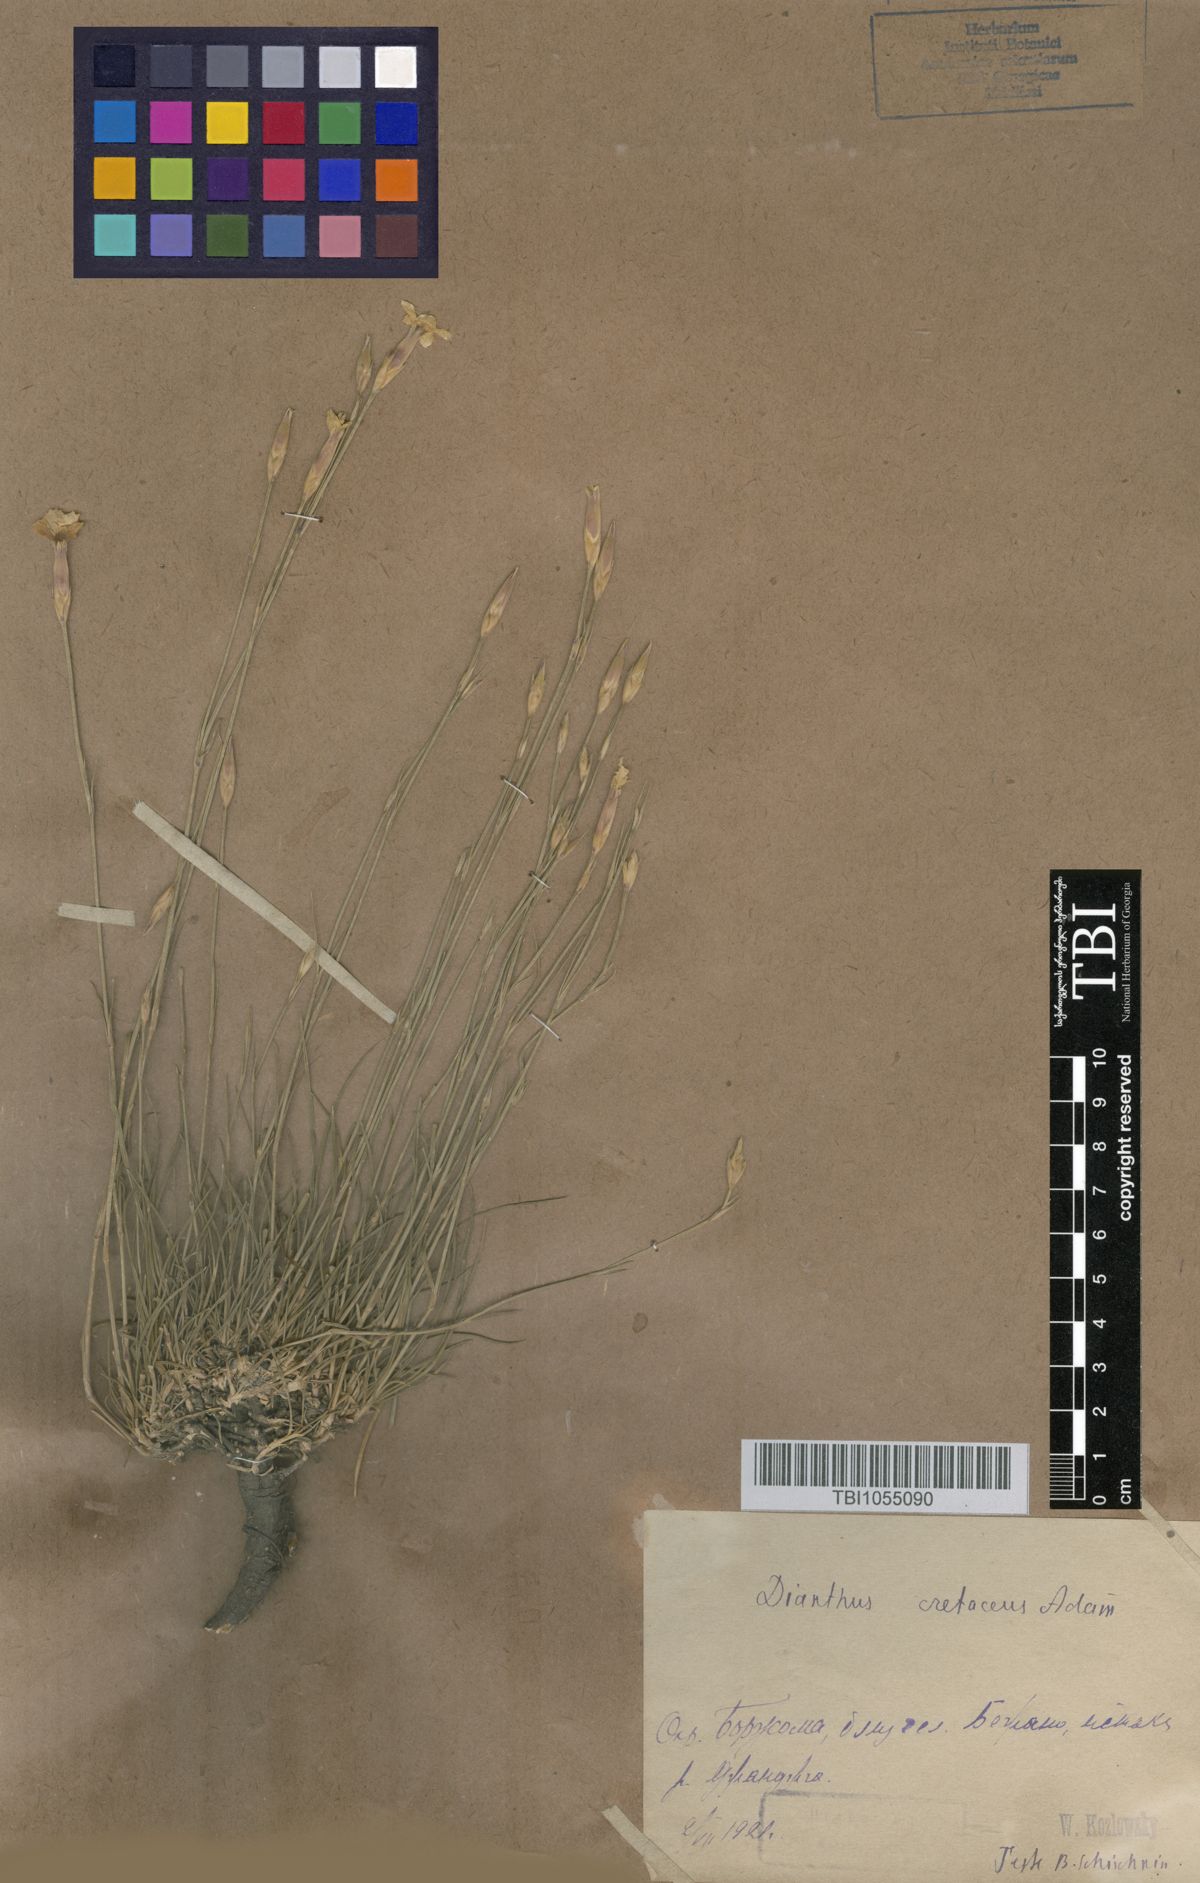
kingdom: Plantae
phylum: Tracheophyta
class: Magnoliopsida
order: Caryophyllales
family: Caryophyllaceae
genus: Dianthus
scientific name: Dianthus cretaceus
